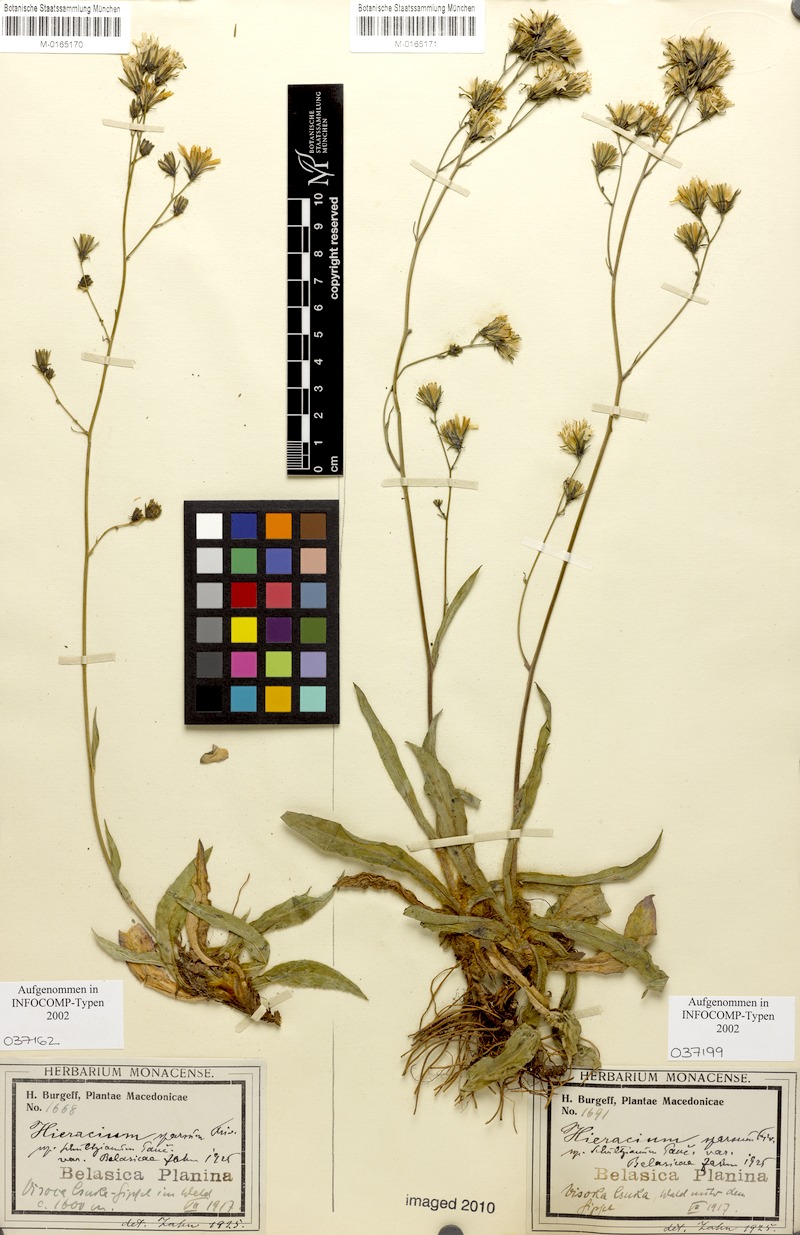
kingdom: Plantae
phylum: Tracheophyta
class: Magnoliopsida
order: Asterales
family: Asteraceae
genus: Hieracium
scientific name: Hieracium sparsum
